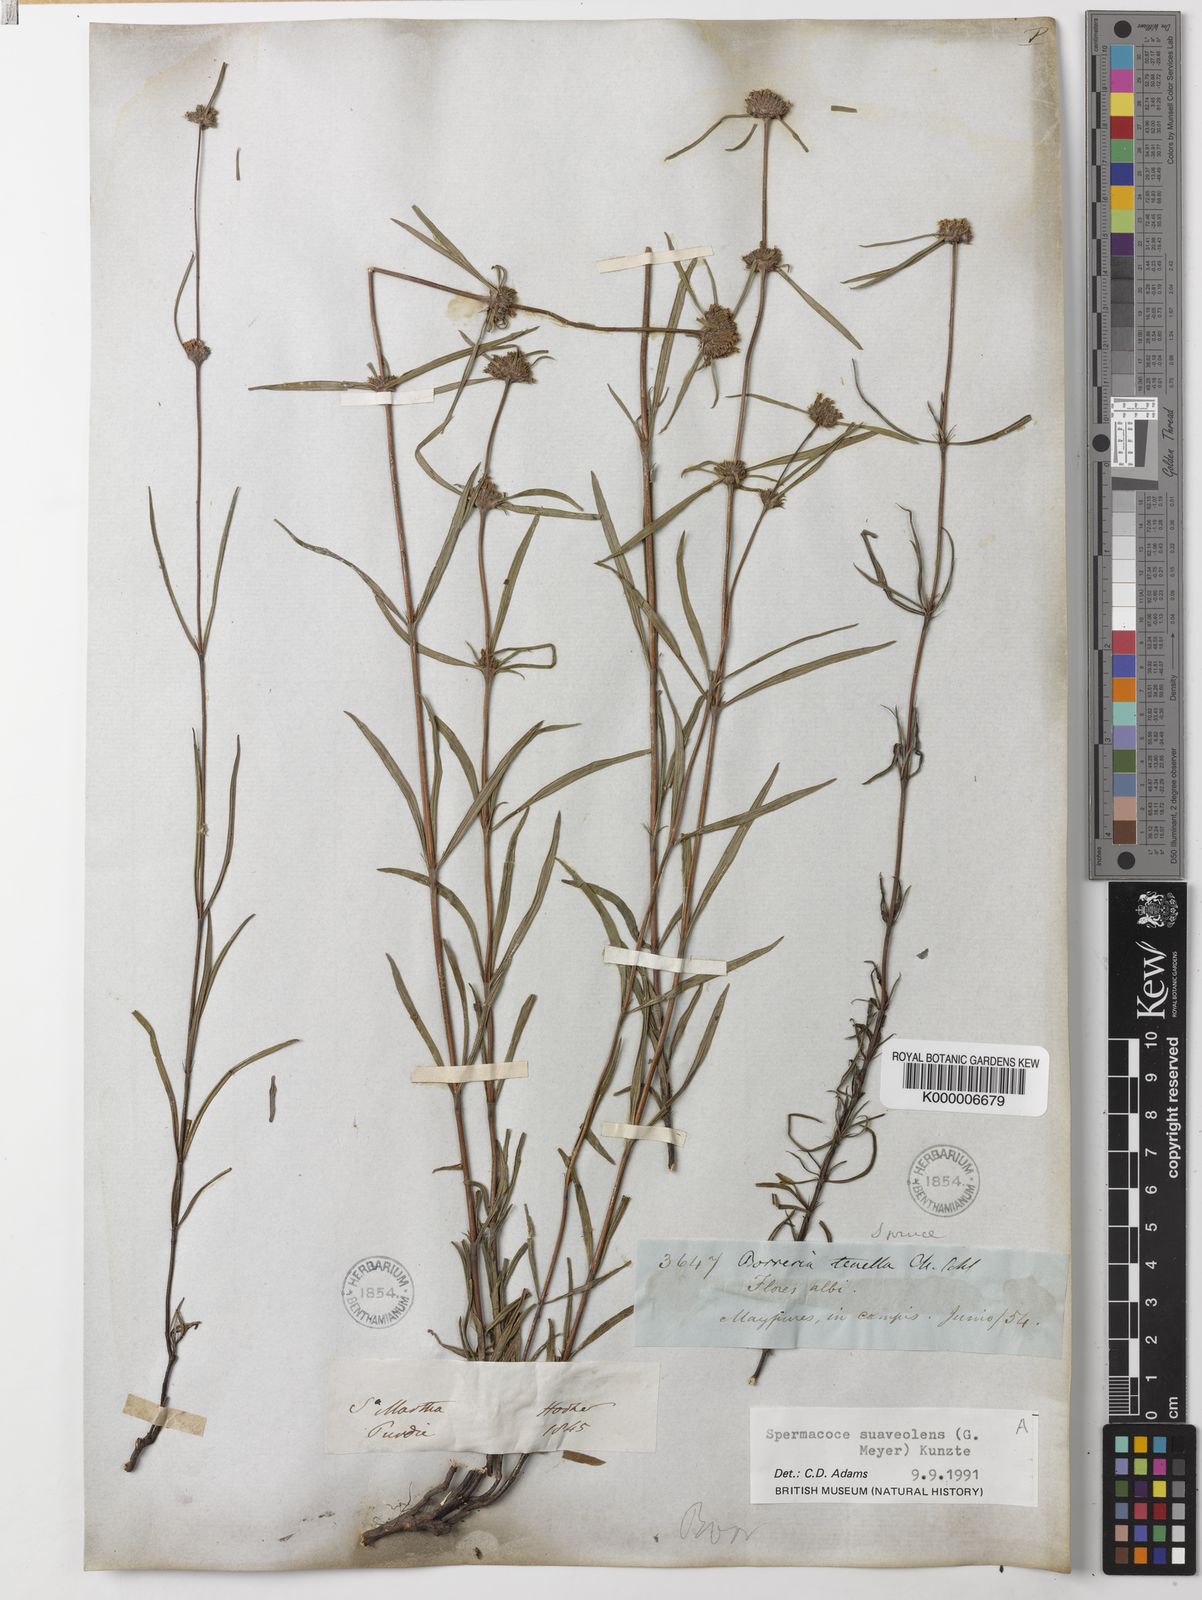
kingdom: Plantae
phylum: Tracheophyta
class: Magnoliopsida
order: Gentianales
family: Rubiaceae
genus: Spermacoce
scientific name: Spermacoce suaveolens
